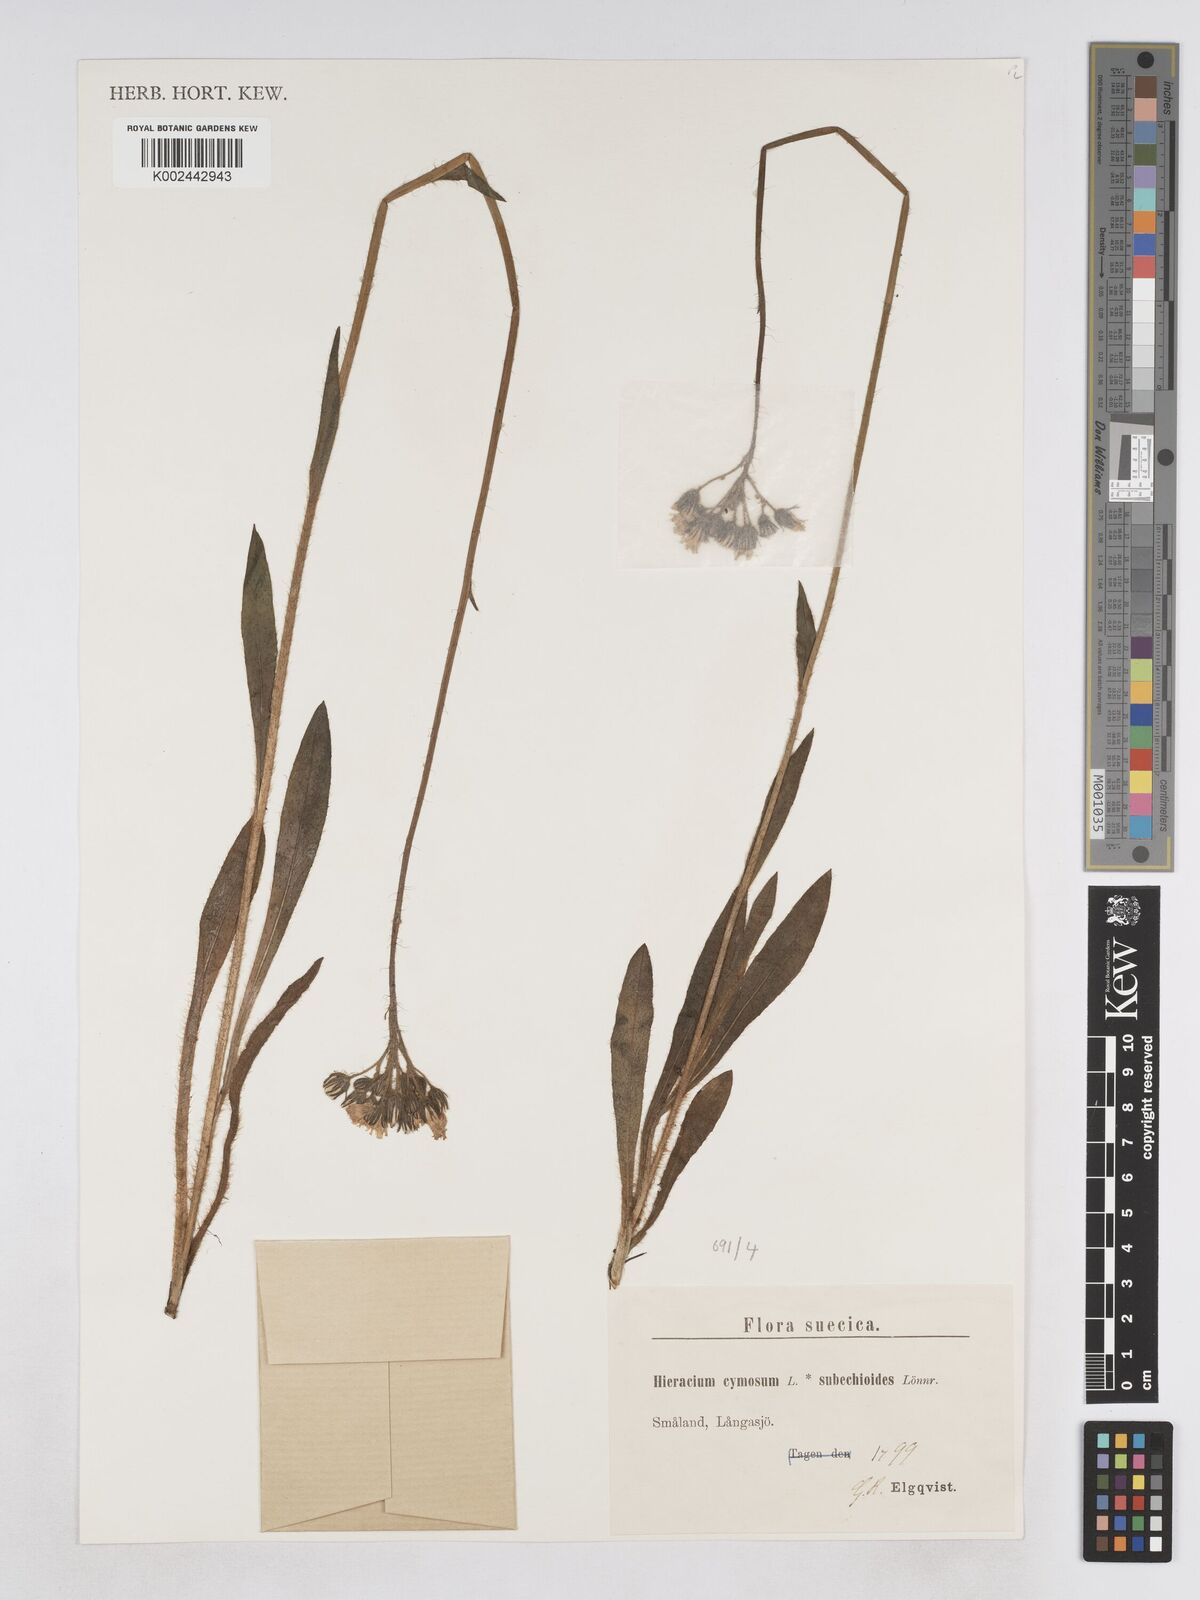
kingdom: Plantae
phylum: Tracheophyta
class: Magnoliopsida
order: Asterales
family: Asteraceae
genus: Pilosella
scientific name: Pilosella fallax
